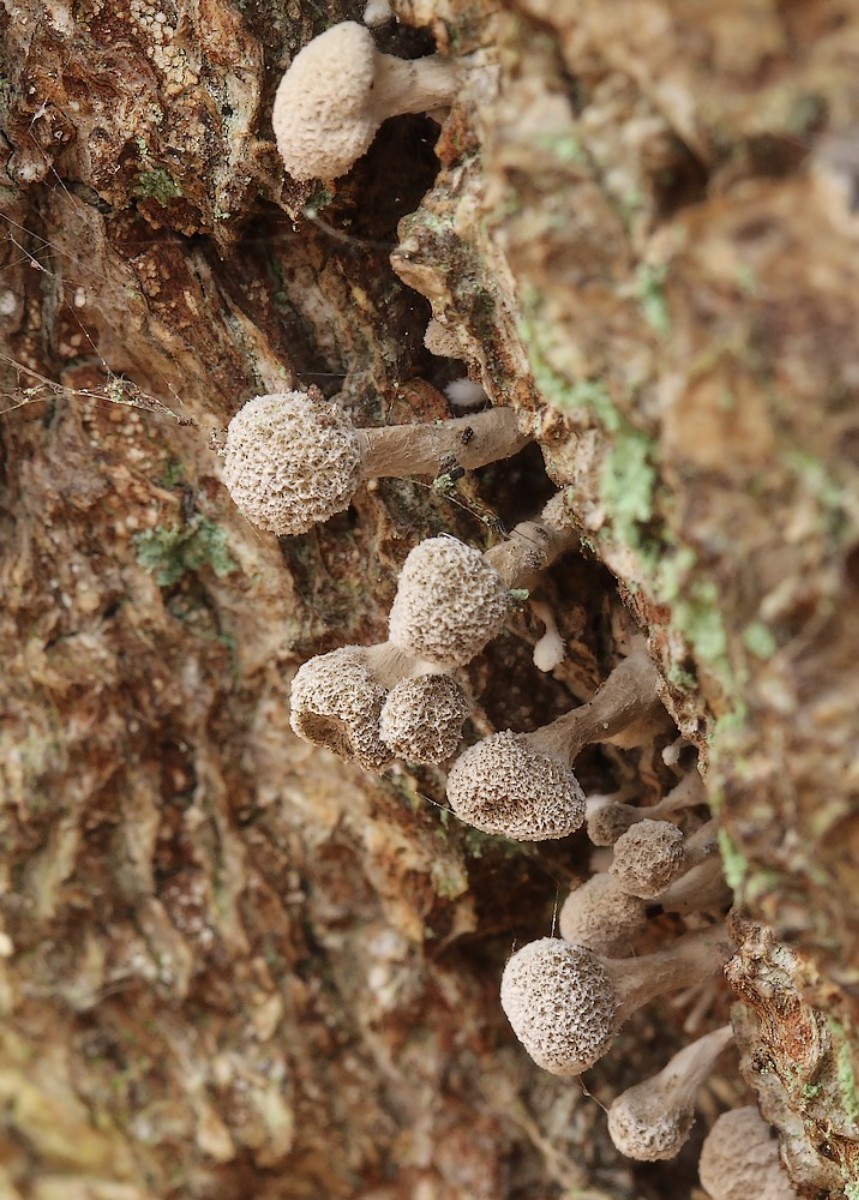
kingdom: Fungi
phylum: Basidiomycota
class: Atractiellomycetes
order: Atractiellales
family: Phleogenaceae
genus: Phleogena
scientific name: Phleogena faginea
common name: pudderkølle
